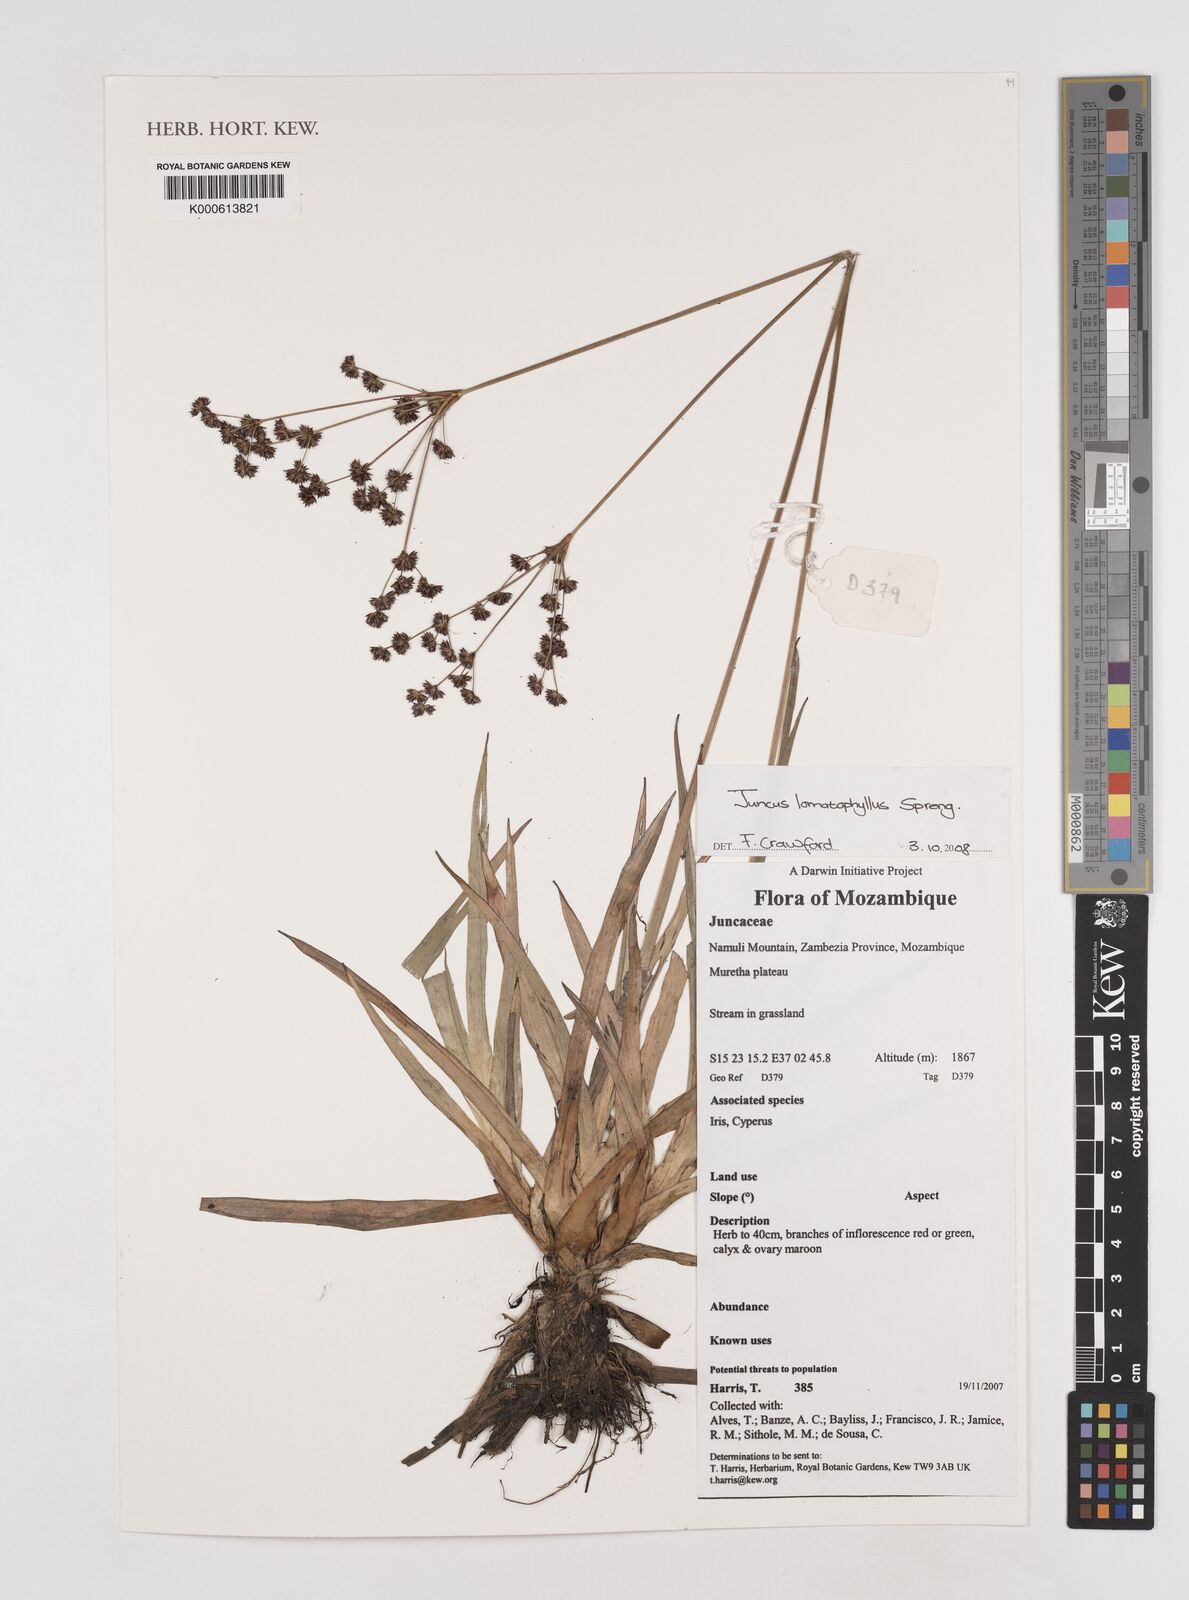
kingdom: Plantae
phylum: Tracheophyta
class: Liliopsida
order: Poales
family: Juncaceae
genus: Juncus
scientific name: Juncus lomatophyllus
